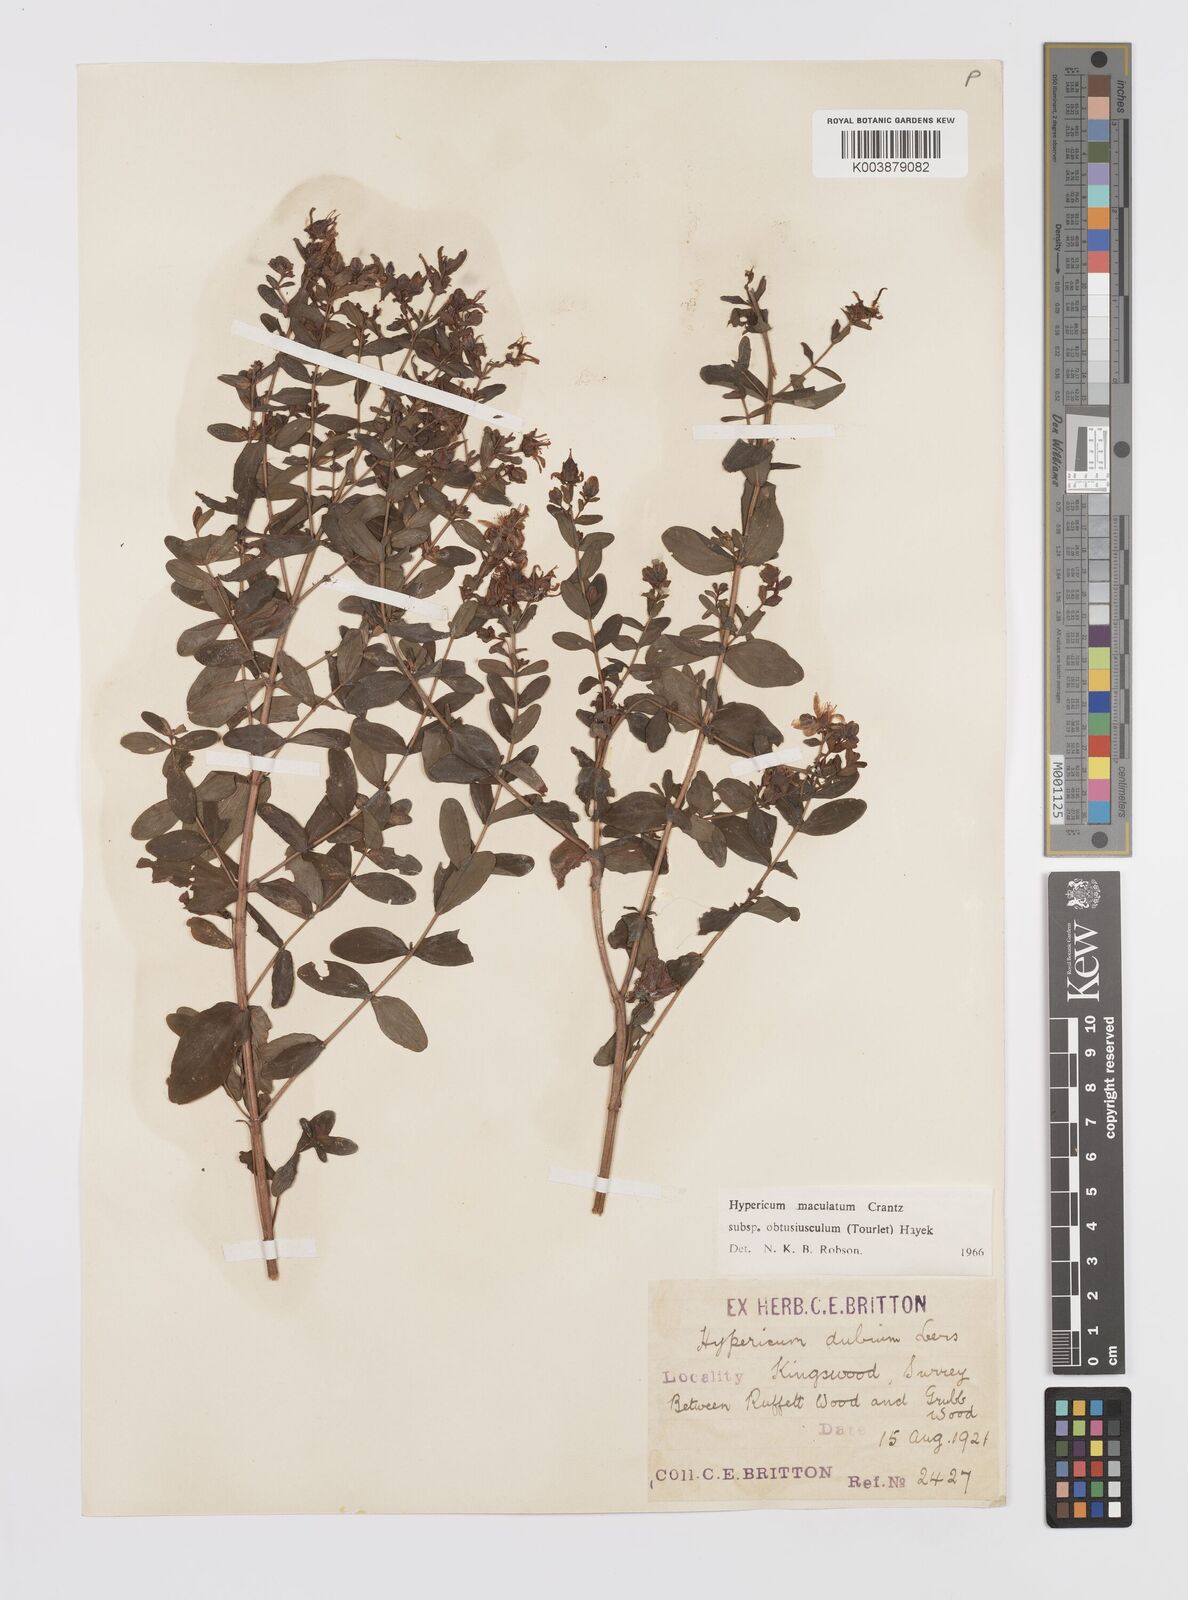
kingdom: Plantae
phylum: Tracheophyta
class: Magnoliopsida
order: Malpighiales
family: Hypericaceae
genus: Hypericum
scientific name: Hypericum dubium
